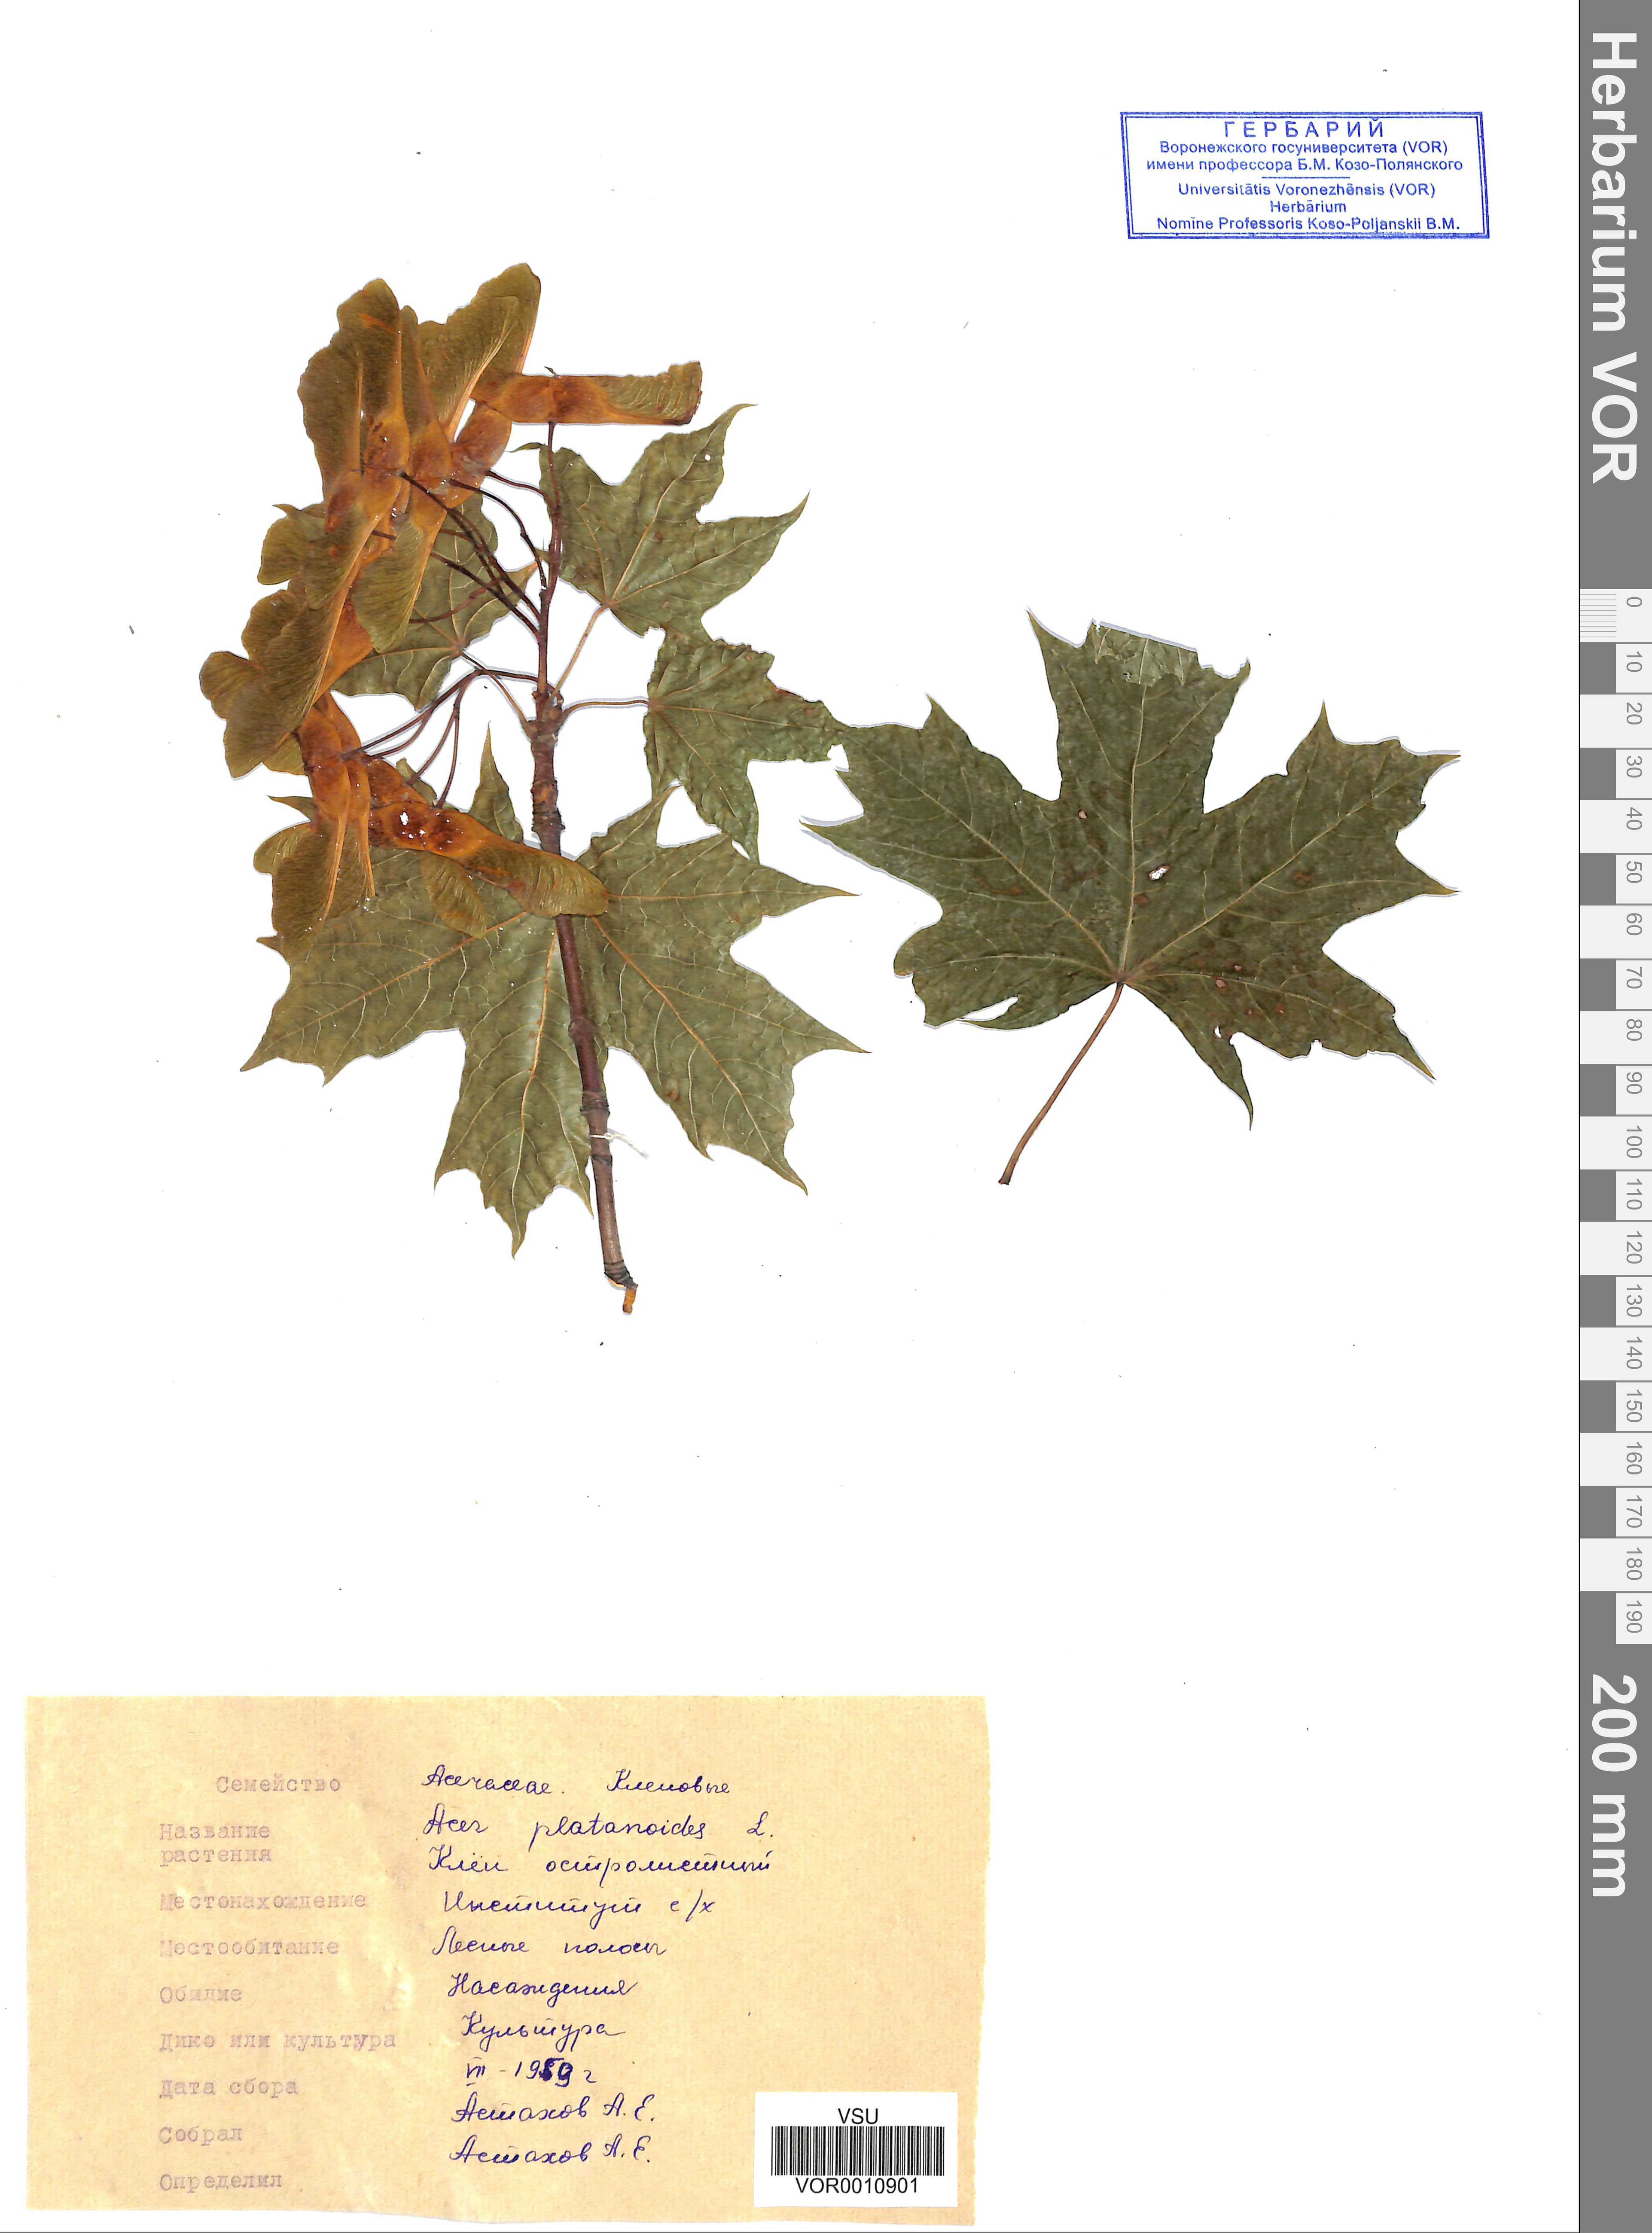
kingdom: Plantae
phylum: Tracheophyta
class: Magnoliopsida
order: Sapindales
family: Sapindaceae
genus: Acer
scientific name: Acer platanoides
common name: Norway maple
